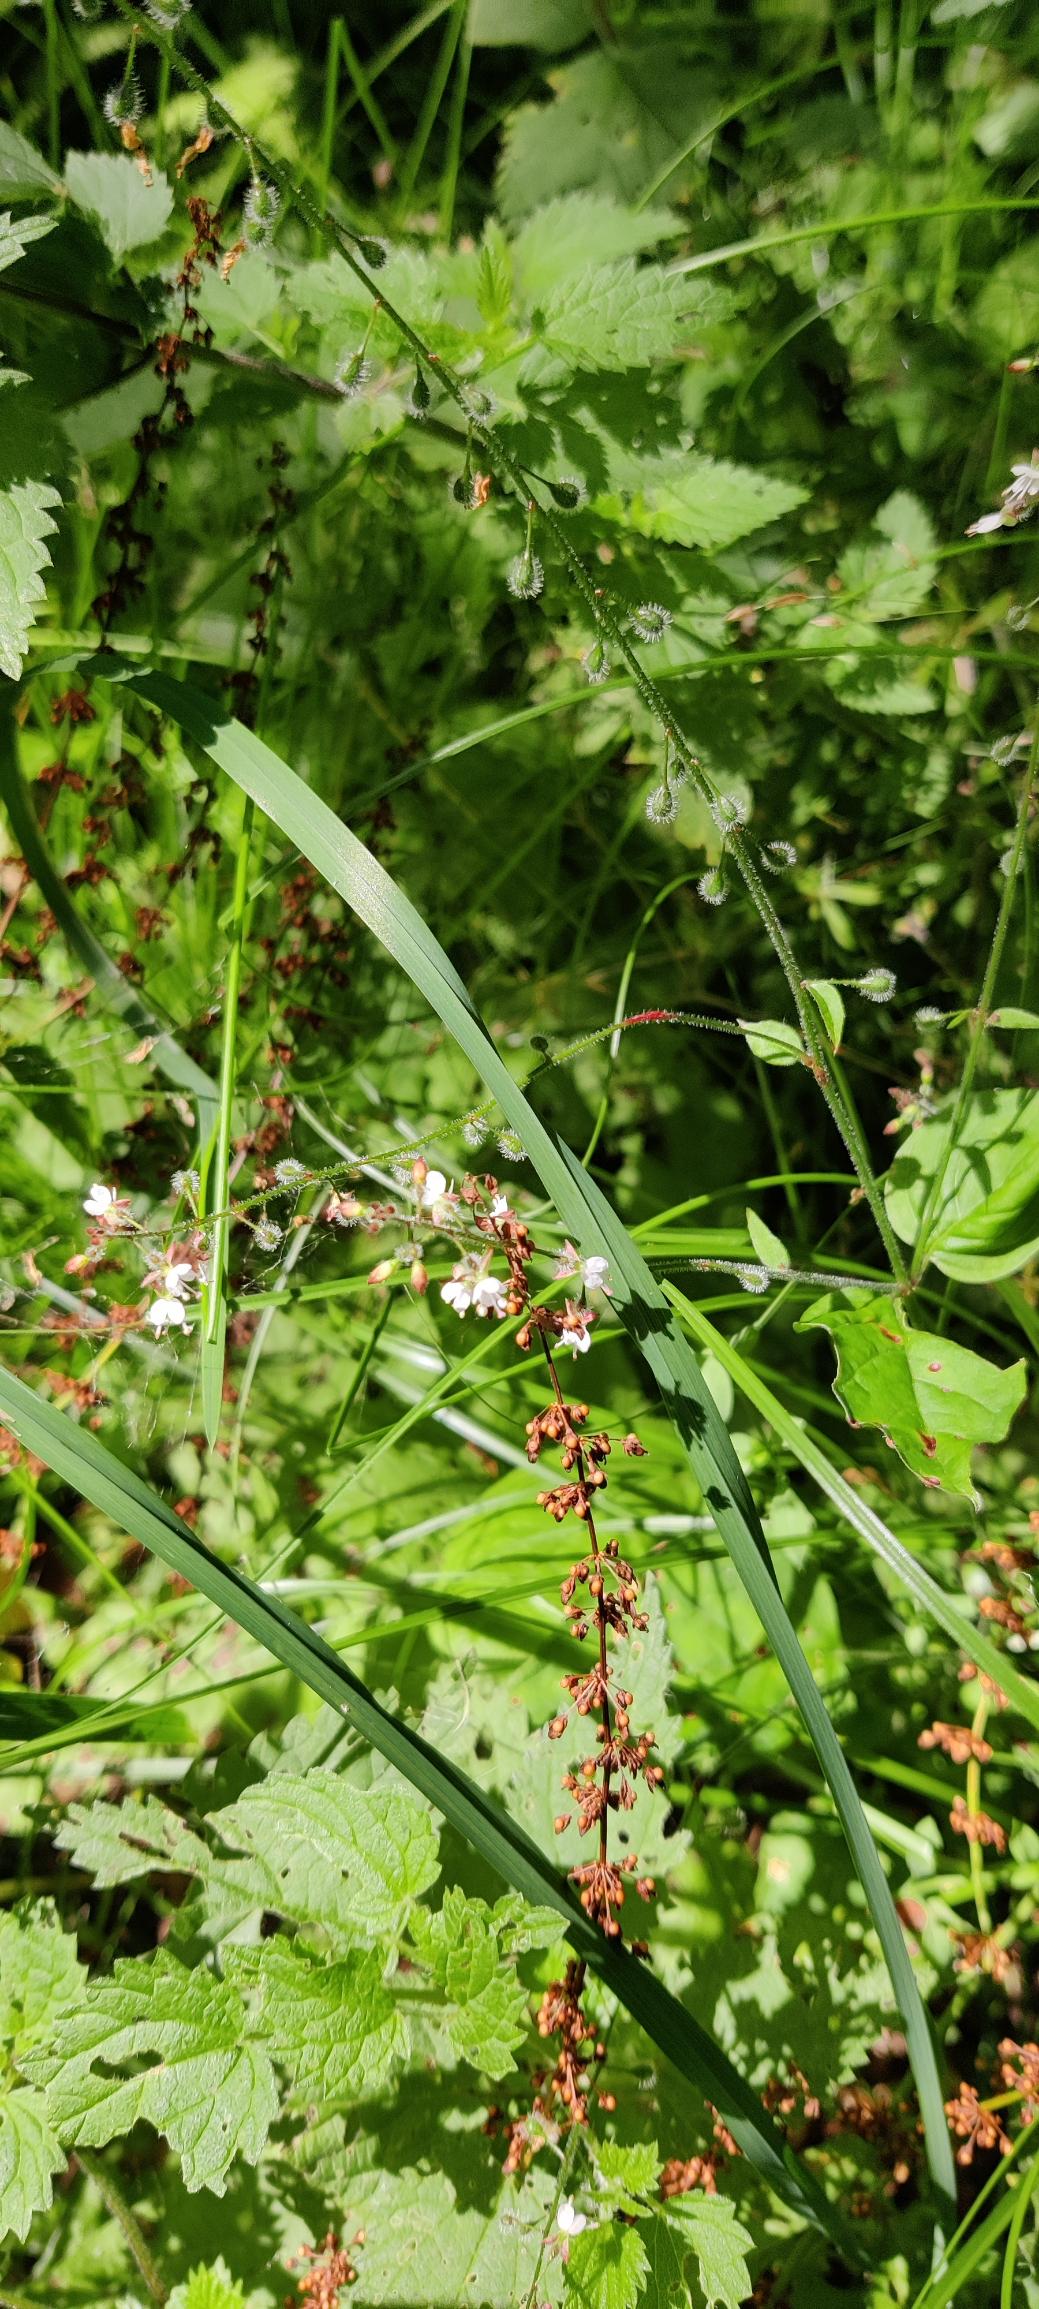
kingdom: Plantae
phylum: Tracheophyta
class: Magnoliopsida
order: Myrtales
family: Onagraceae
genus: Circaea
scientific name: Circaea lutetiana
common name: Dunet steffensurt
